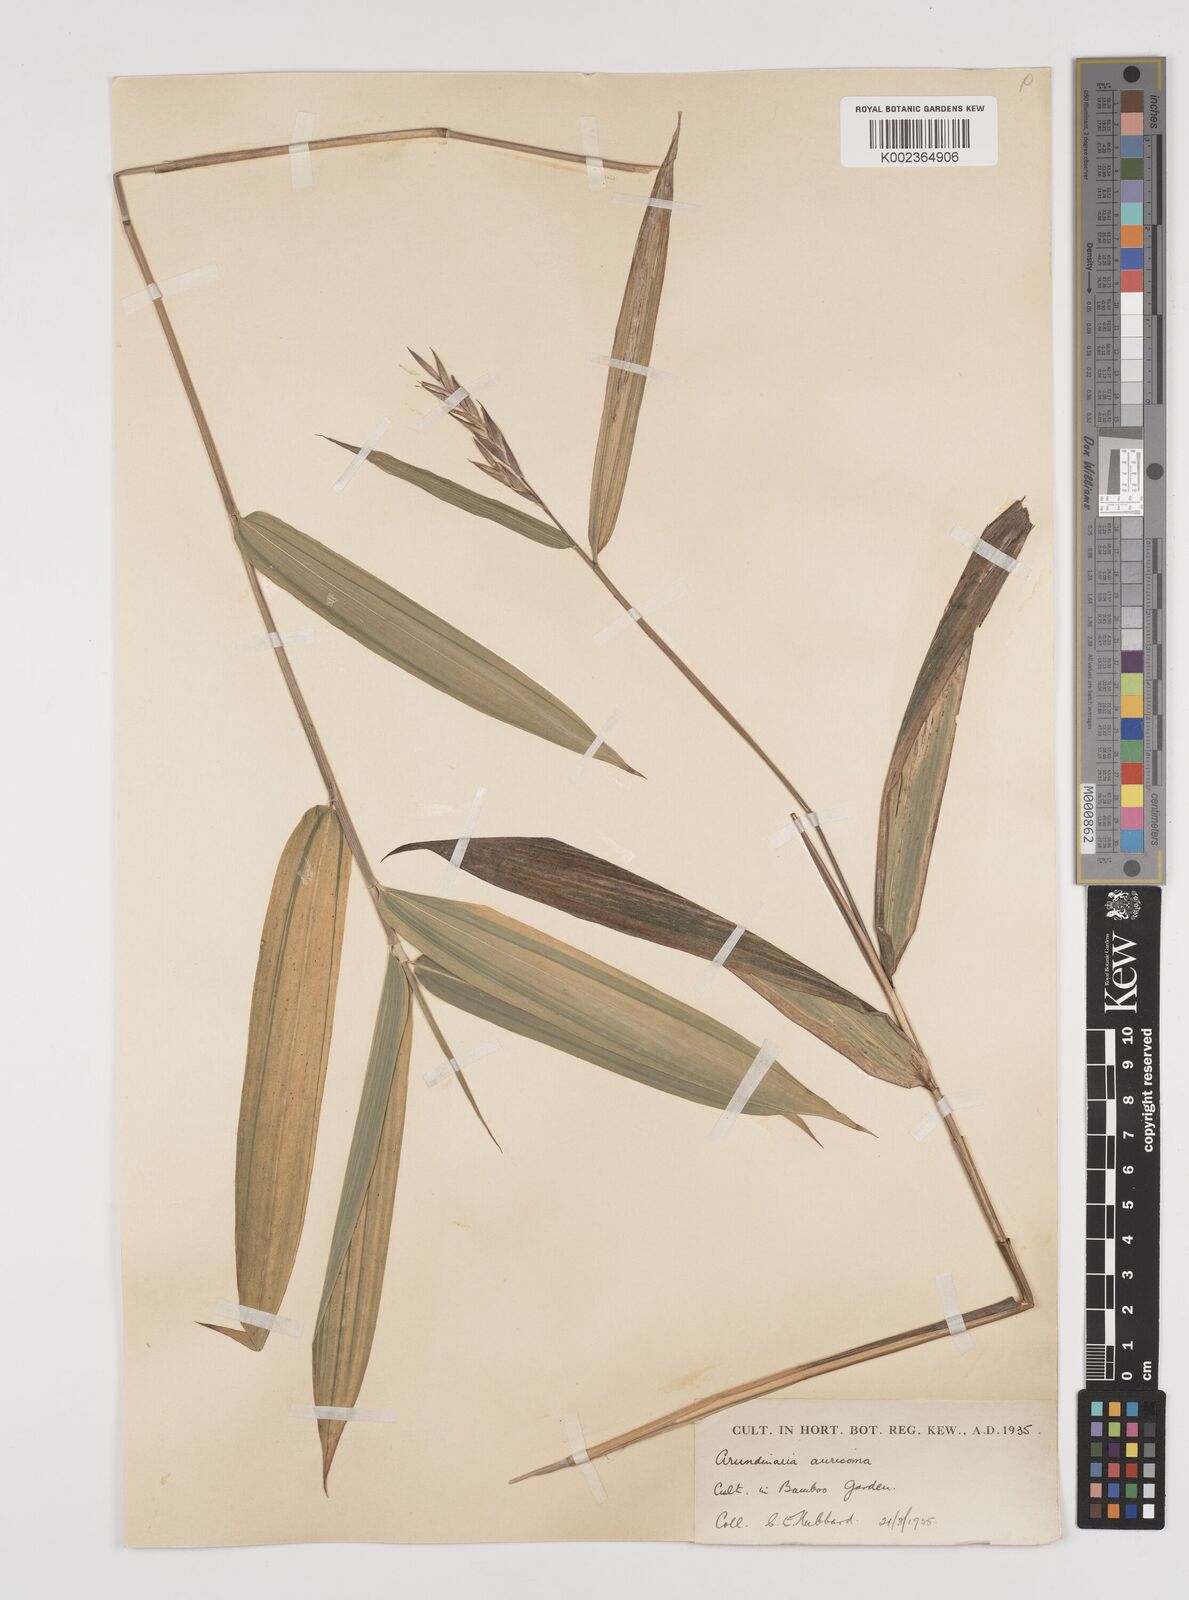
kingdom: Plantae
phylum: Tracheophyta
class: Liliopsida
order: Poales
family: Poaceae
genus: Pleioblastus
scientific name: Pleioblastus viridistriatus
